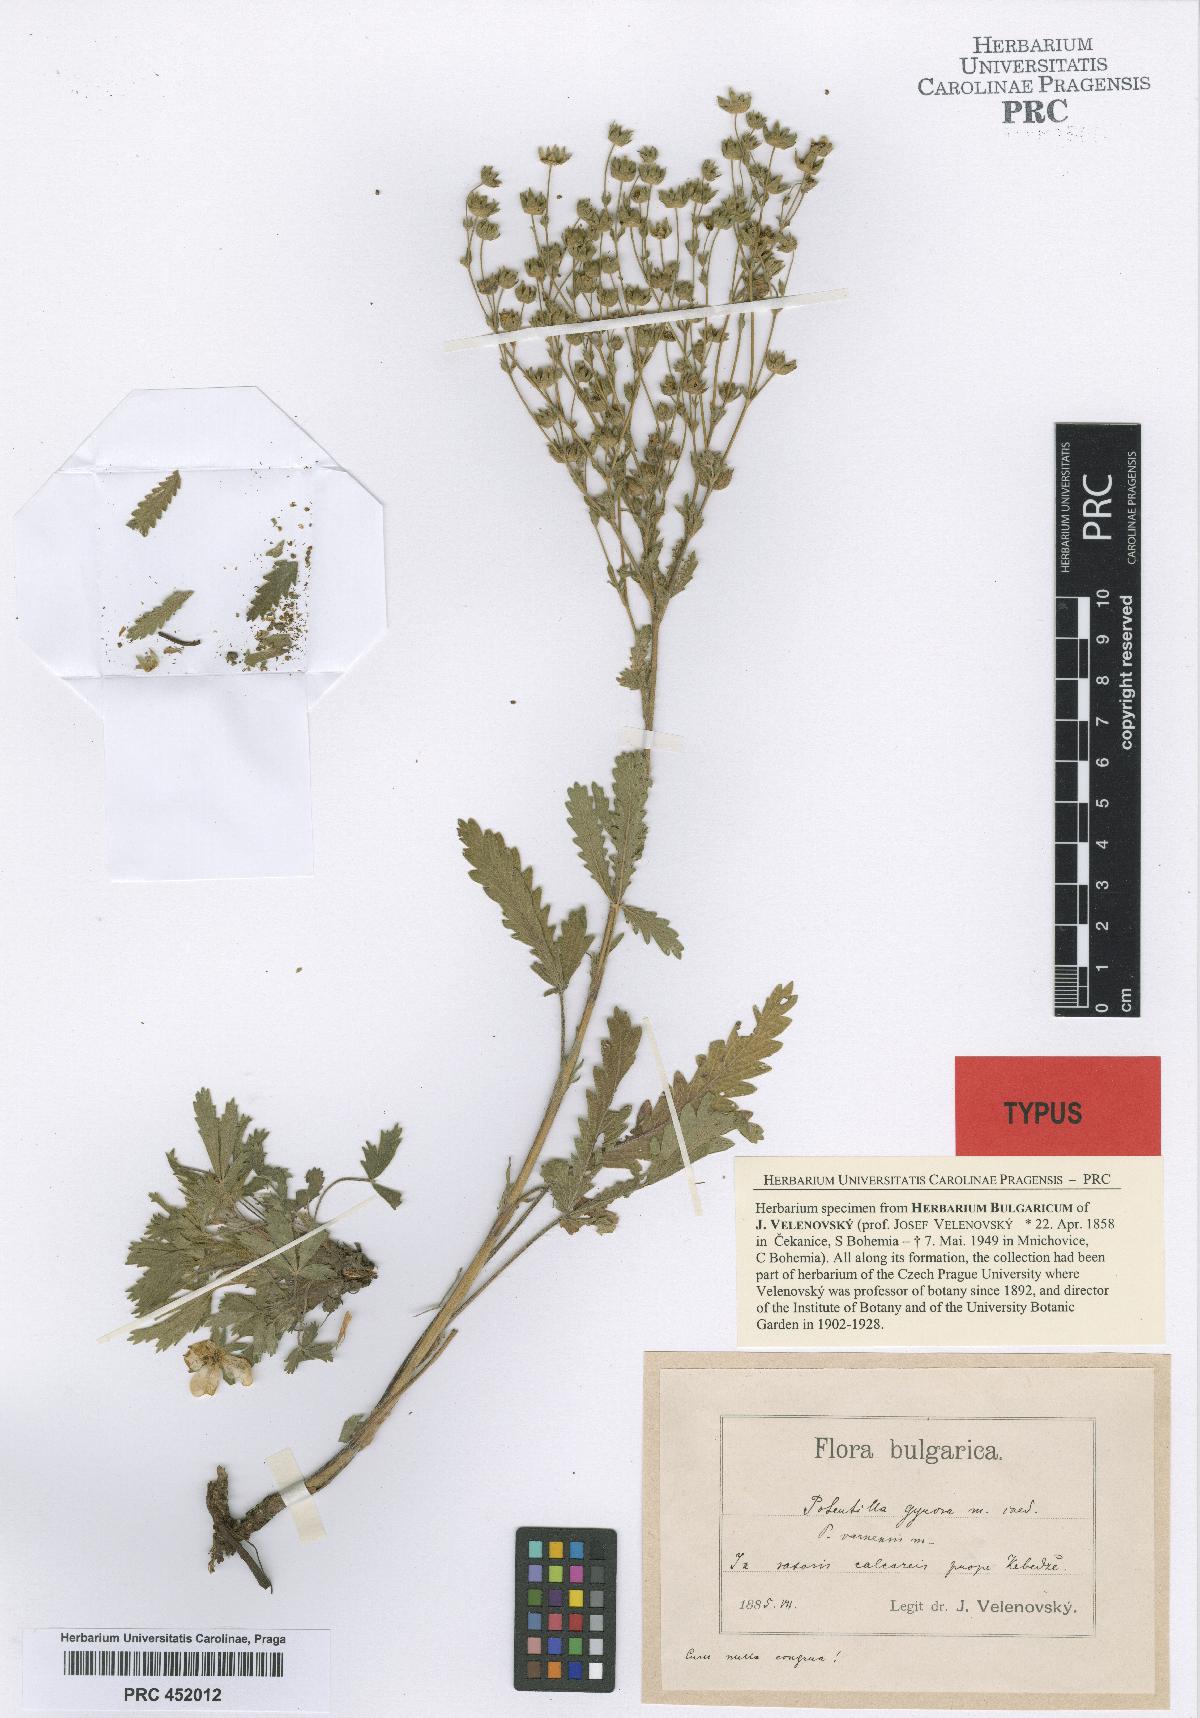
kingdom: Plantae
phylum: Tracheophyta
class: Magnoliopsida
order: Rosales
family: Rosaceae
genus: Potentilla
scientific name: Potentilla recta
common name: Sulphur cinquefoil
